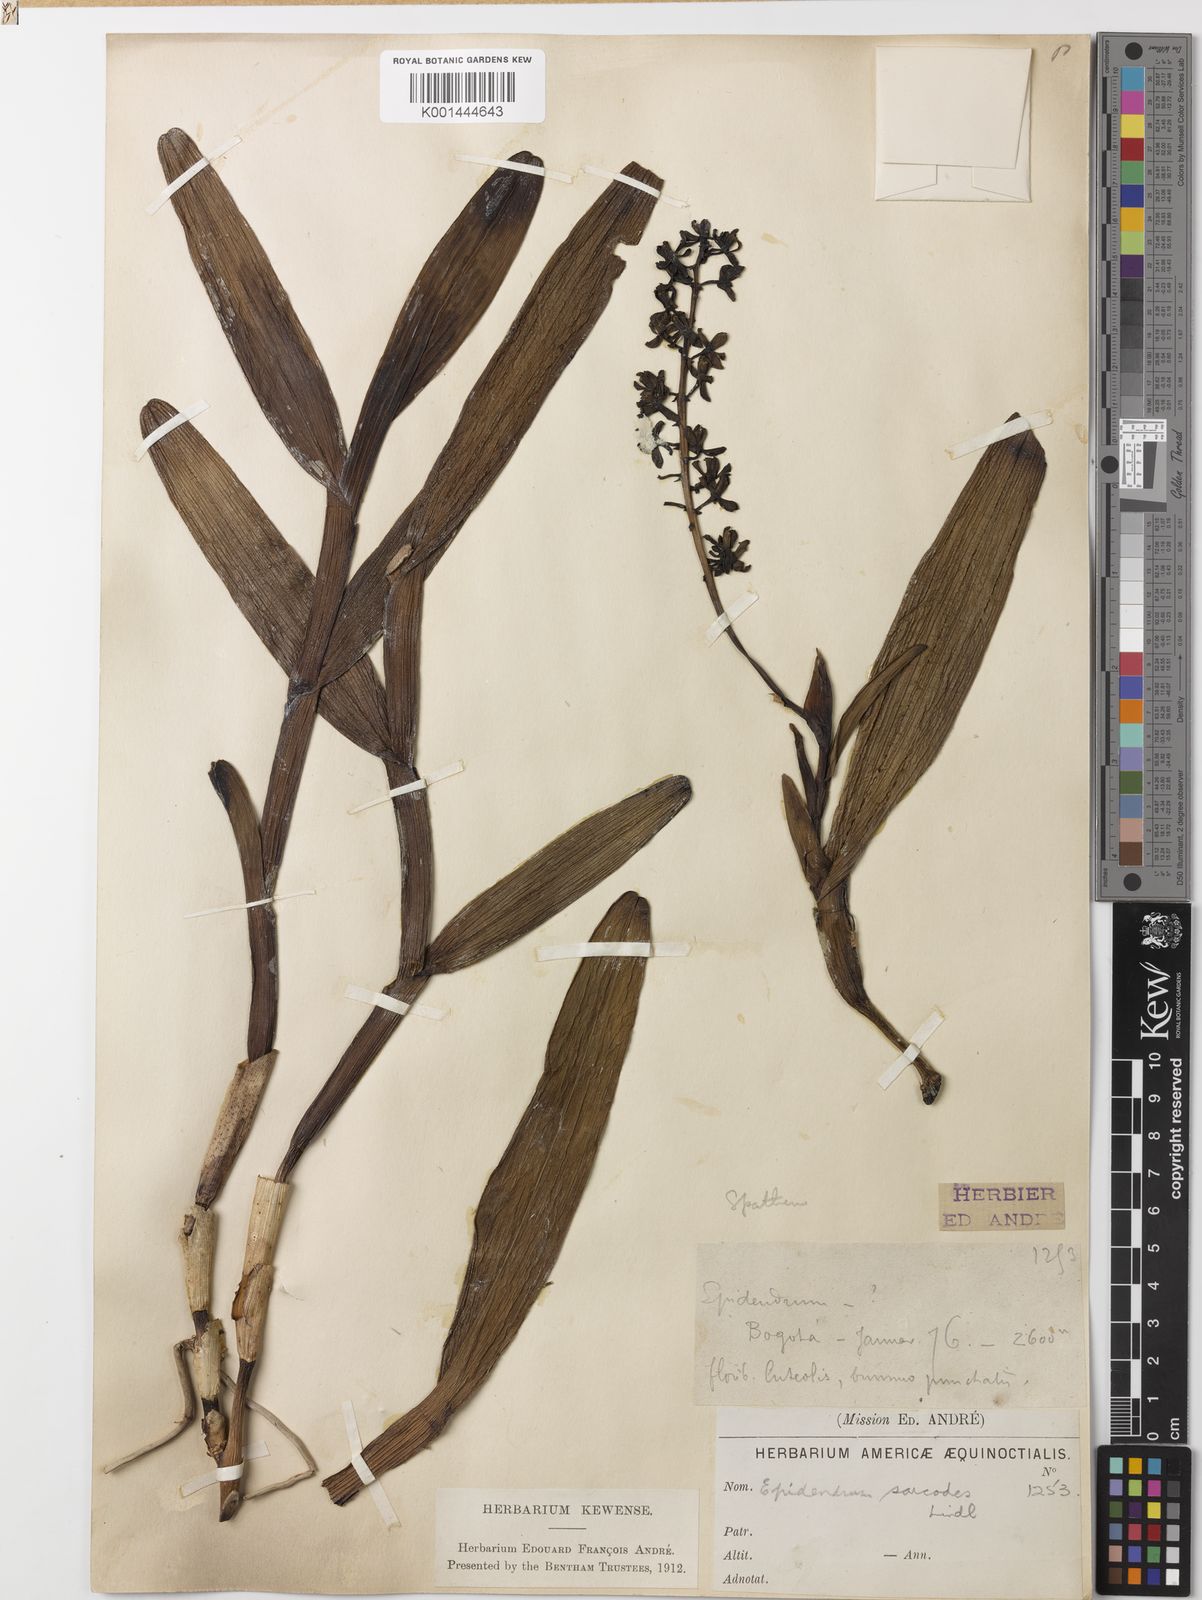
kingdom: Plantae
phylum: Tracheophyta
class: Liliopsida
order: Asparagales
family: Orchidaceae
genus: Epidendrum
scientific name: Epidendrum sarcodes
